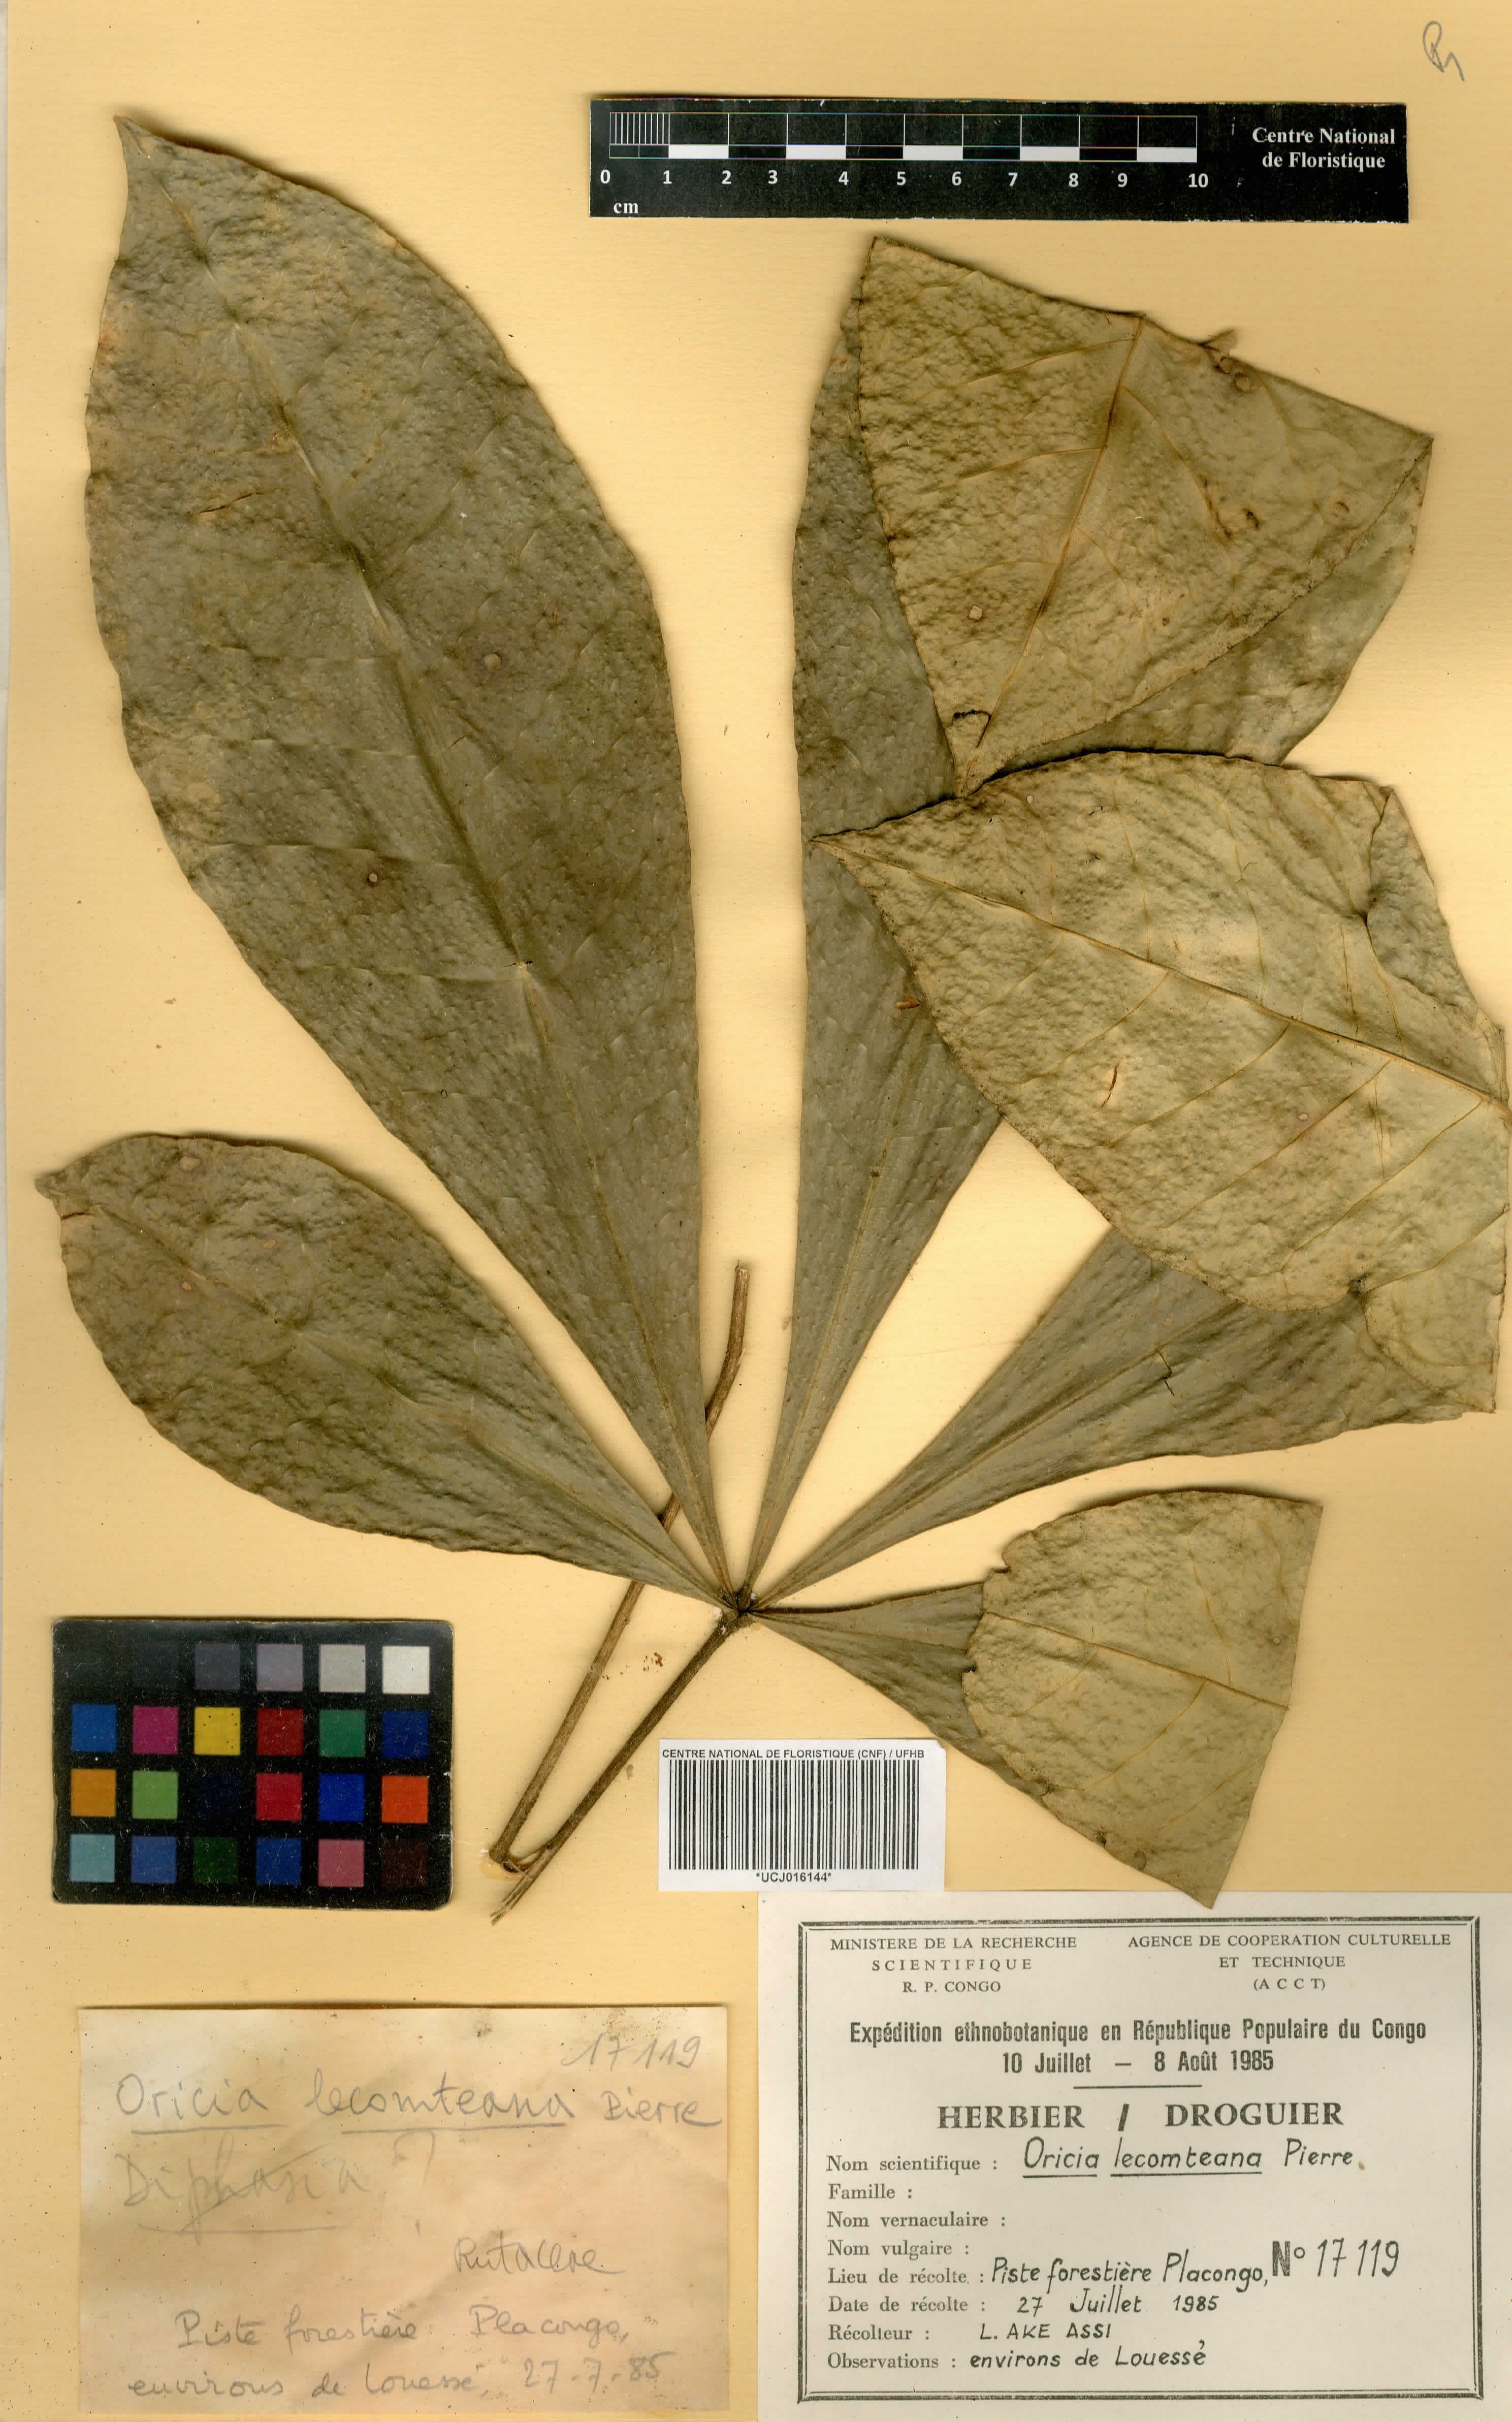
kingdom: Plantae
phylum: Tracheophyta
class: Magnoliopsida
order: Sapindales
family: Rutaceae
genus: Vepris
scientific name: Vepris lecomteana
